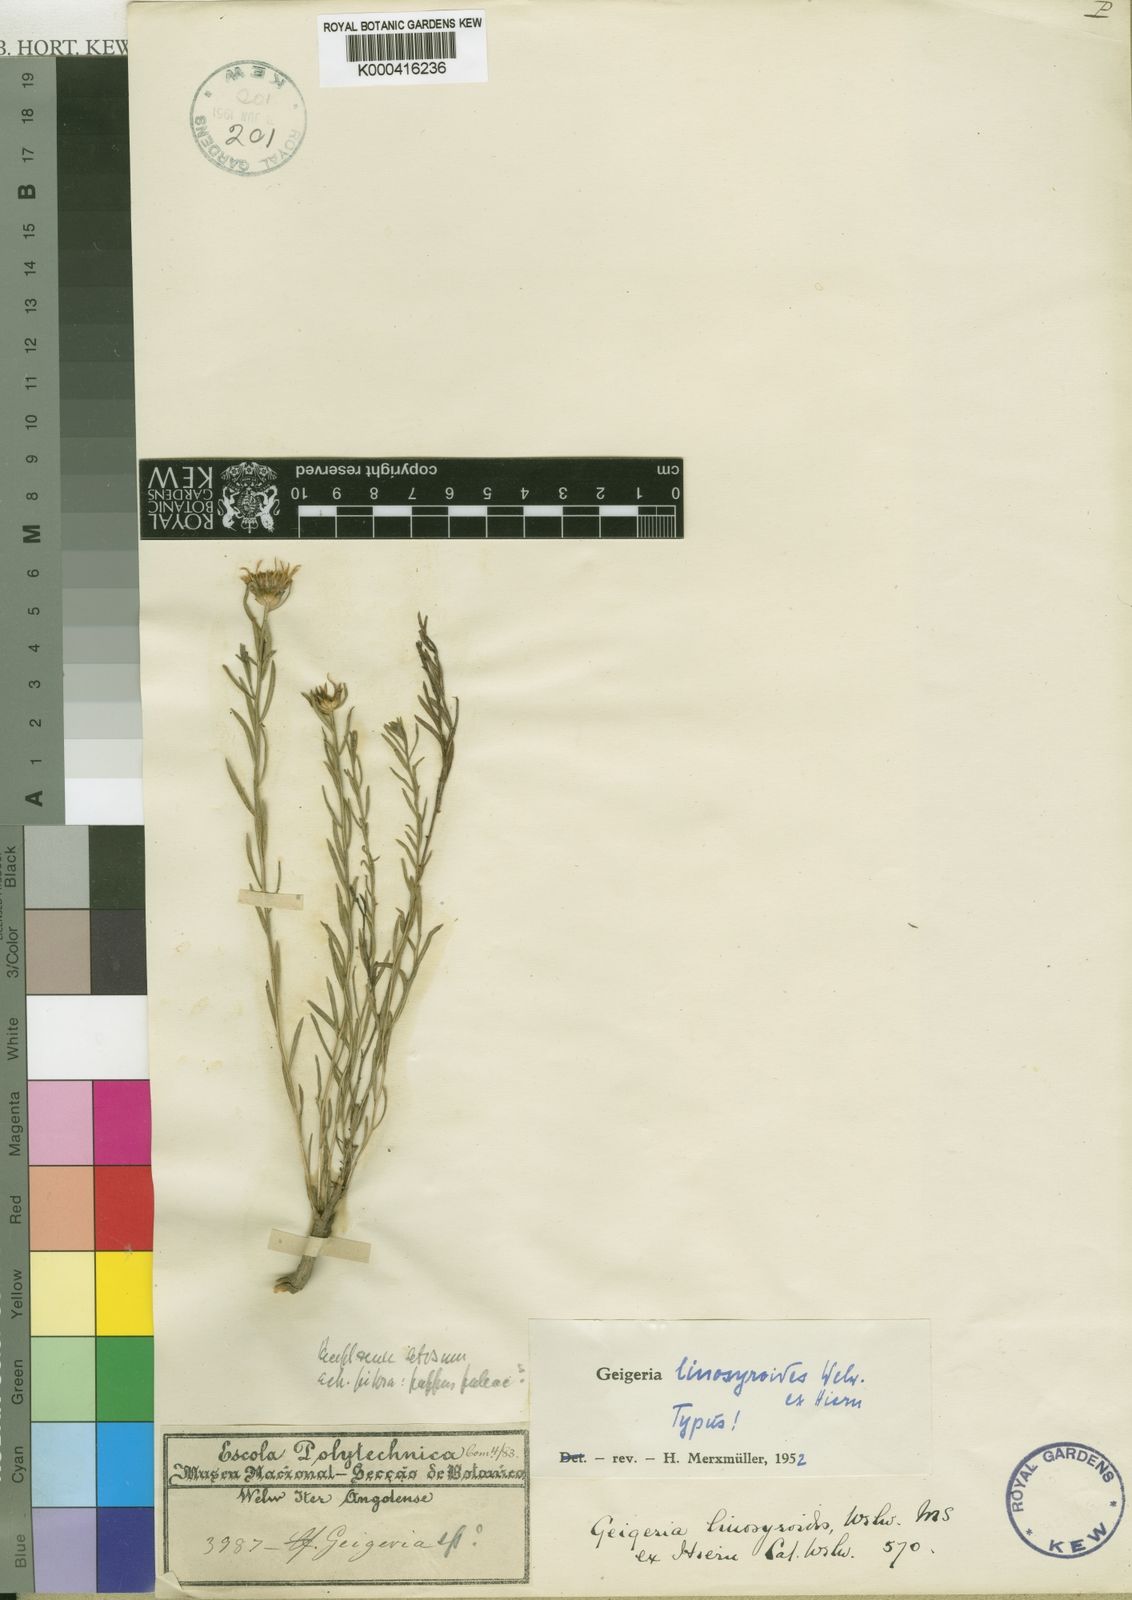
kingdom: Plantae
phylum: Tracheophyta
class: Magnoliopsida
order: Asterales
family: Asteraceae
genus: Geigeria
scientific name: Geigeria linosyroides
